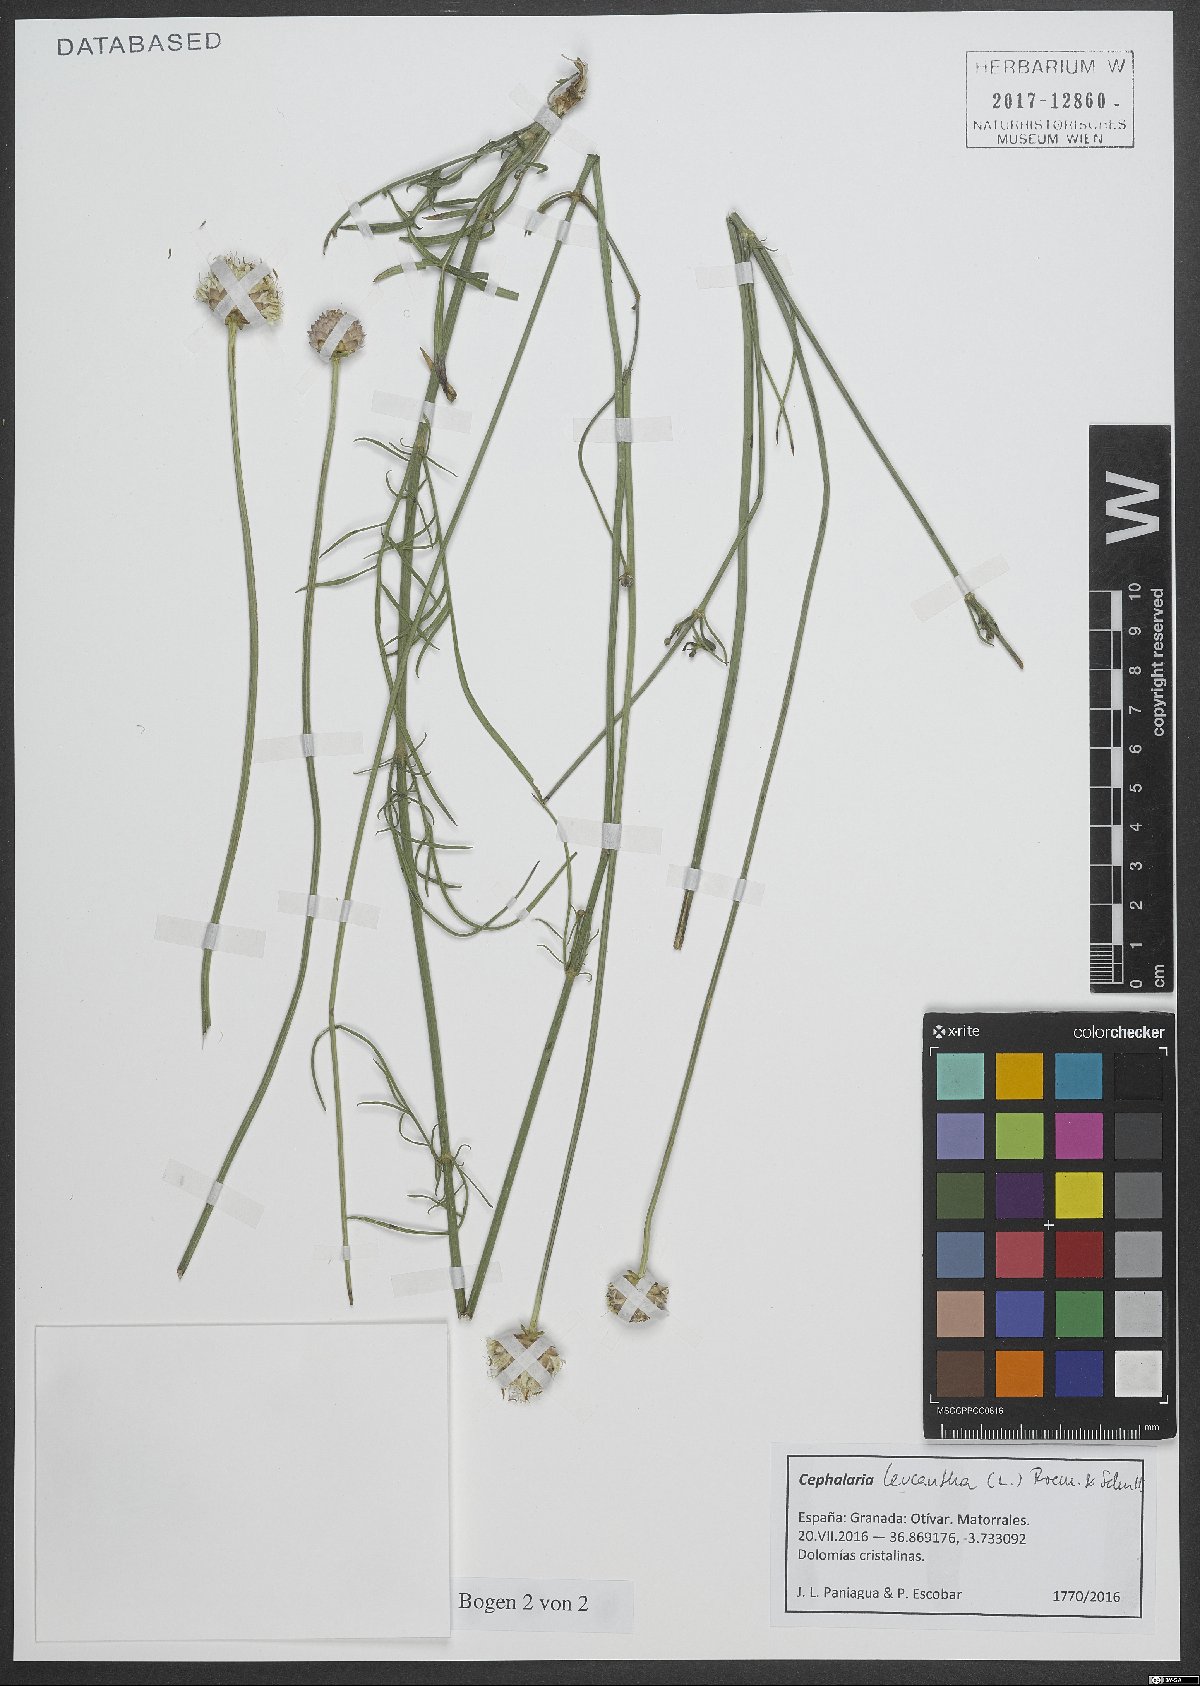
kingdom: Plantae
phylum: Tracheophyta
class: Magnoliopsida
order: Dipsacales
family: Caprifoliaceae
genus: Cephalaria
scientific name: Cephalaria leucantha
